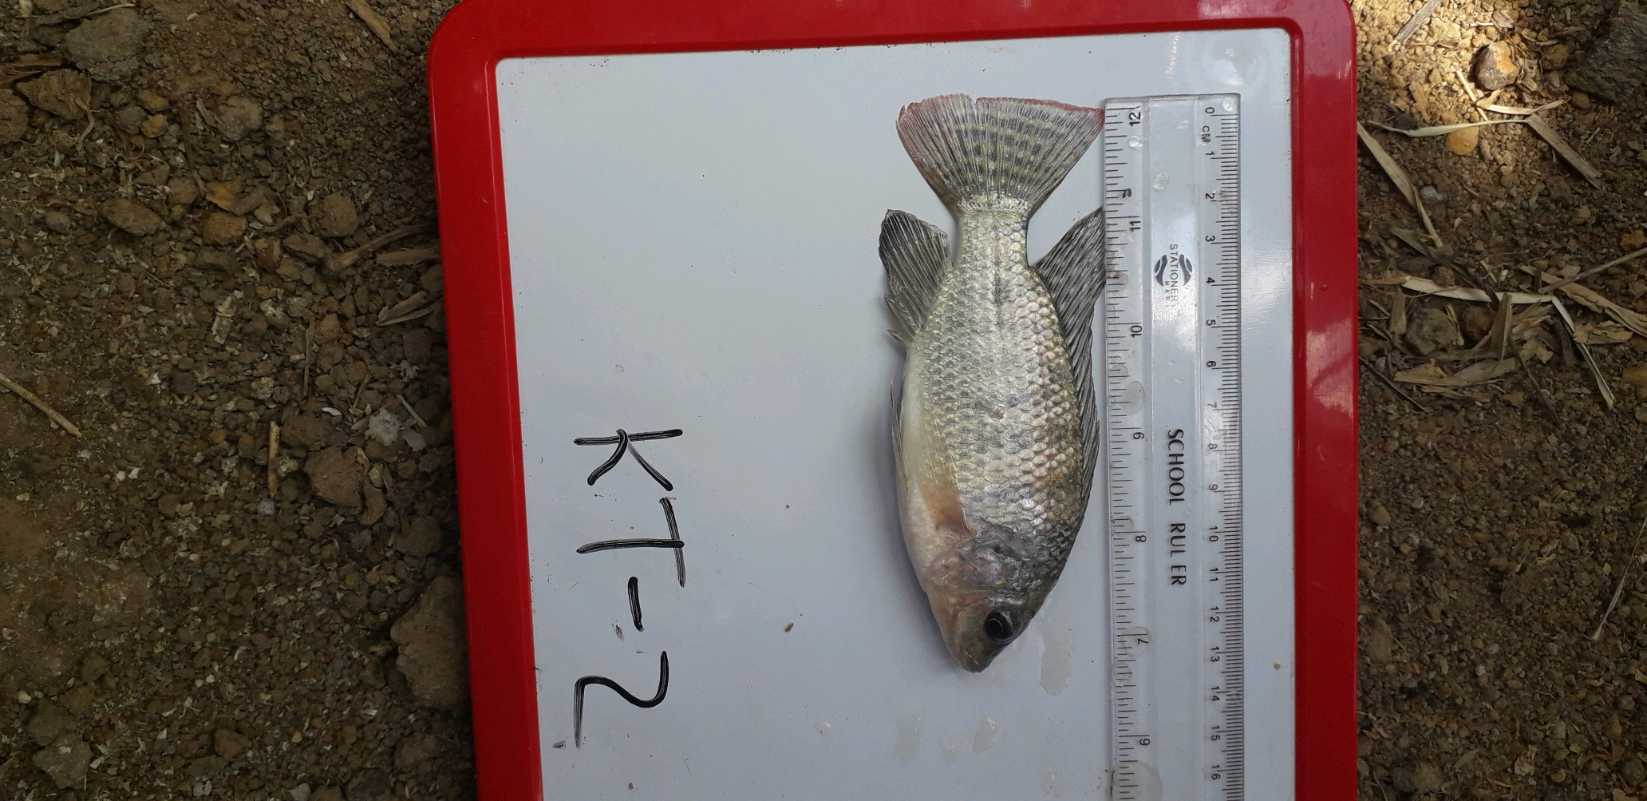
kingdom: Animalia
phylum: Chordata
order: Perciformes
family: Cichlidae
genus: Oreochromis
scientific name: Oreochromis niloticus
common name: Nile tilapia
